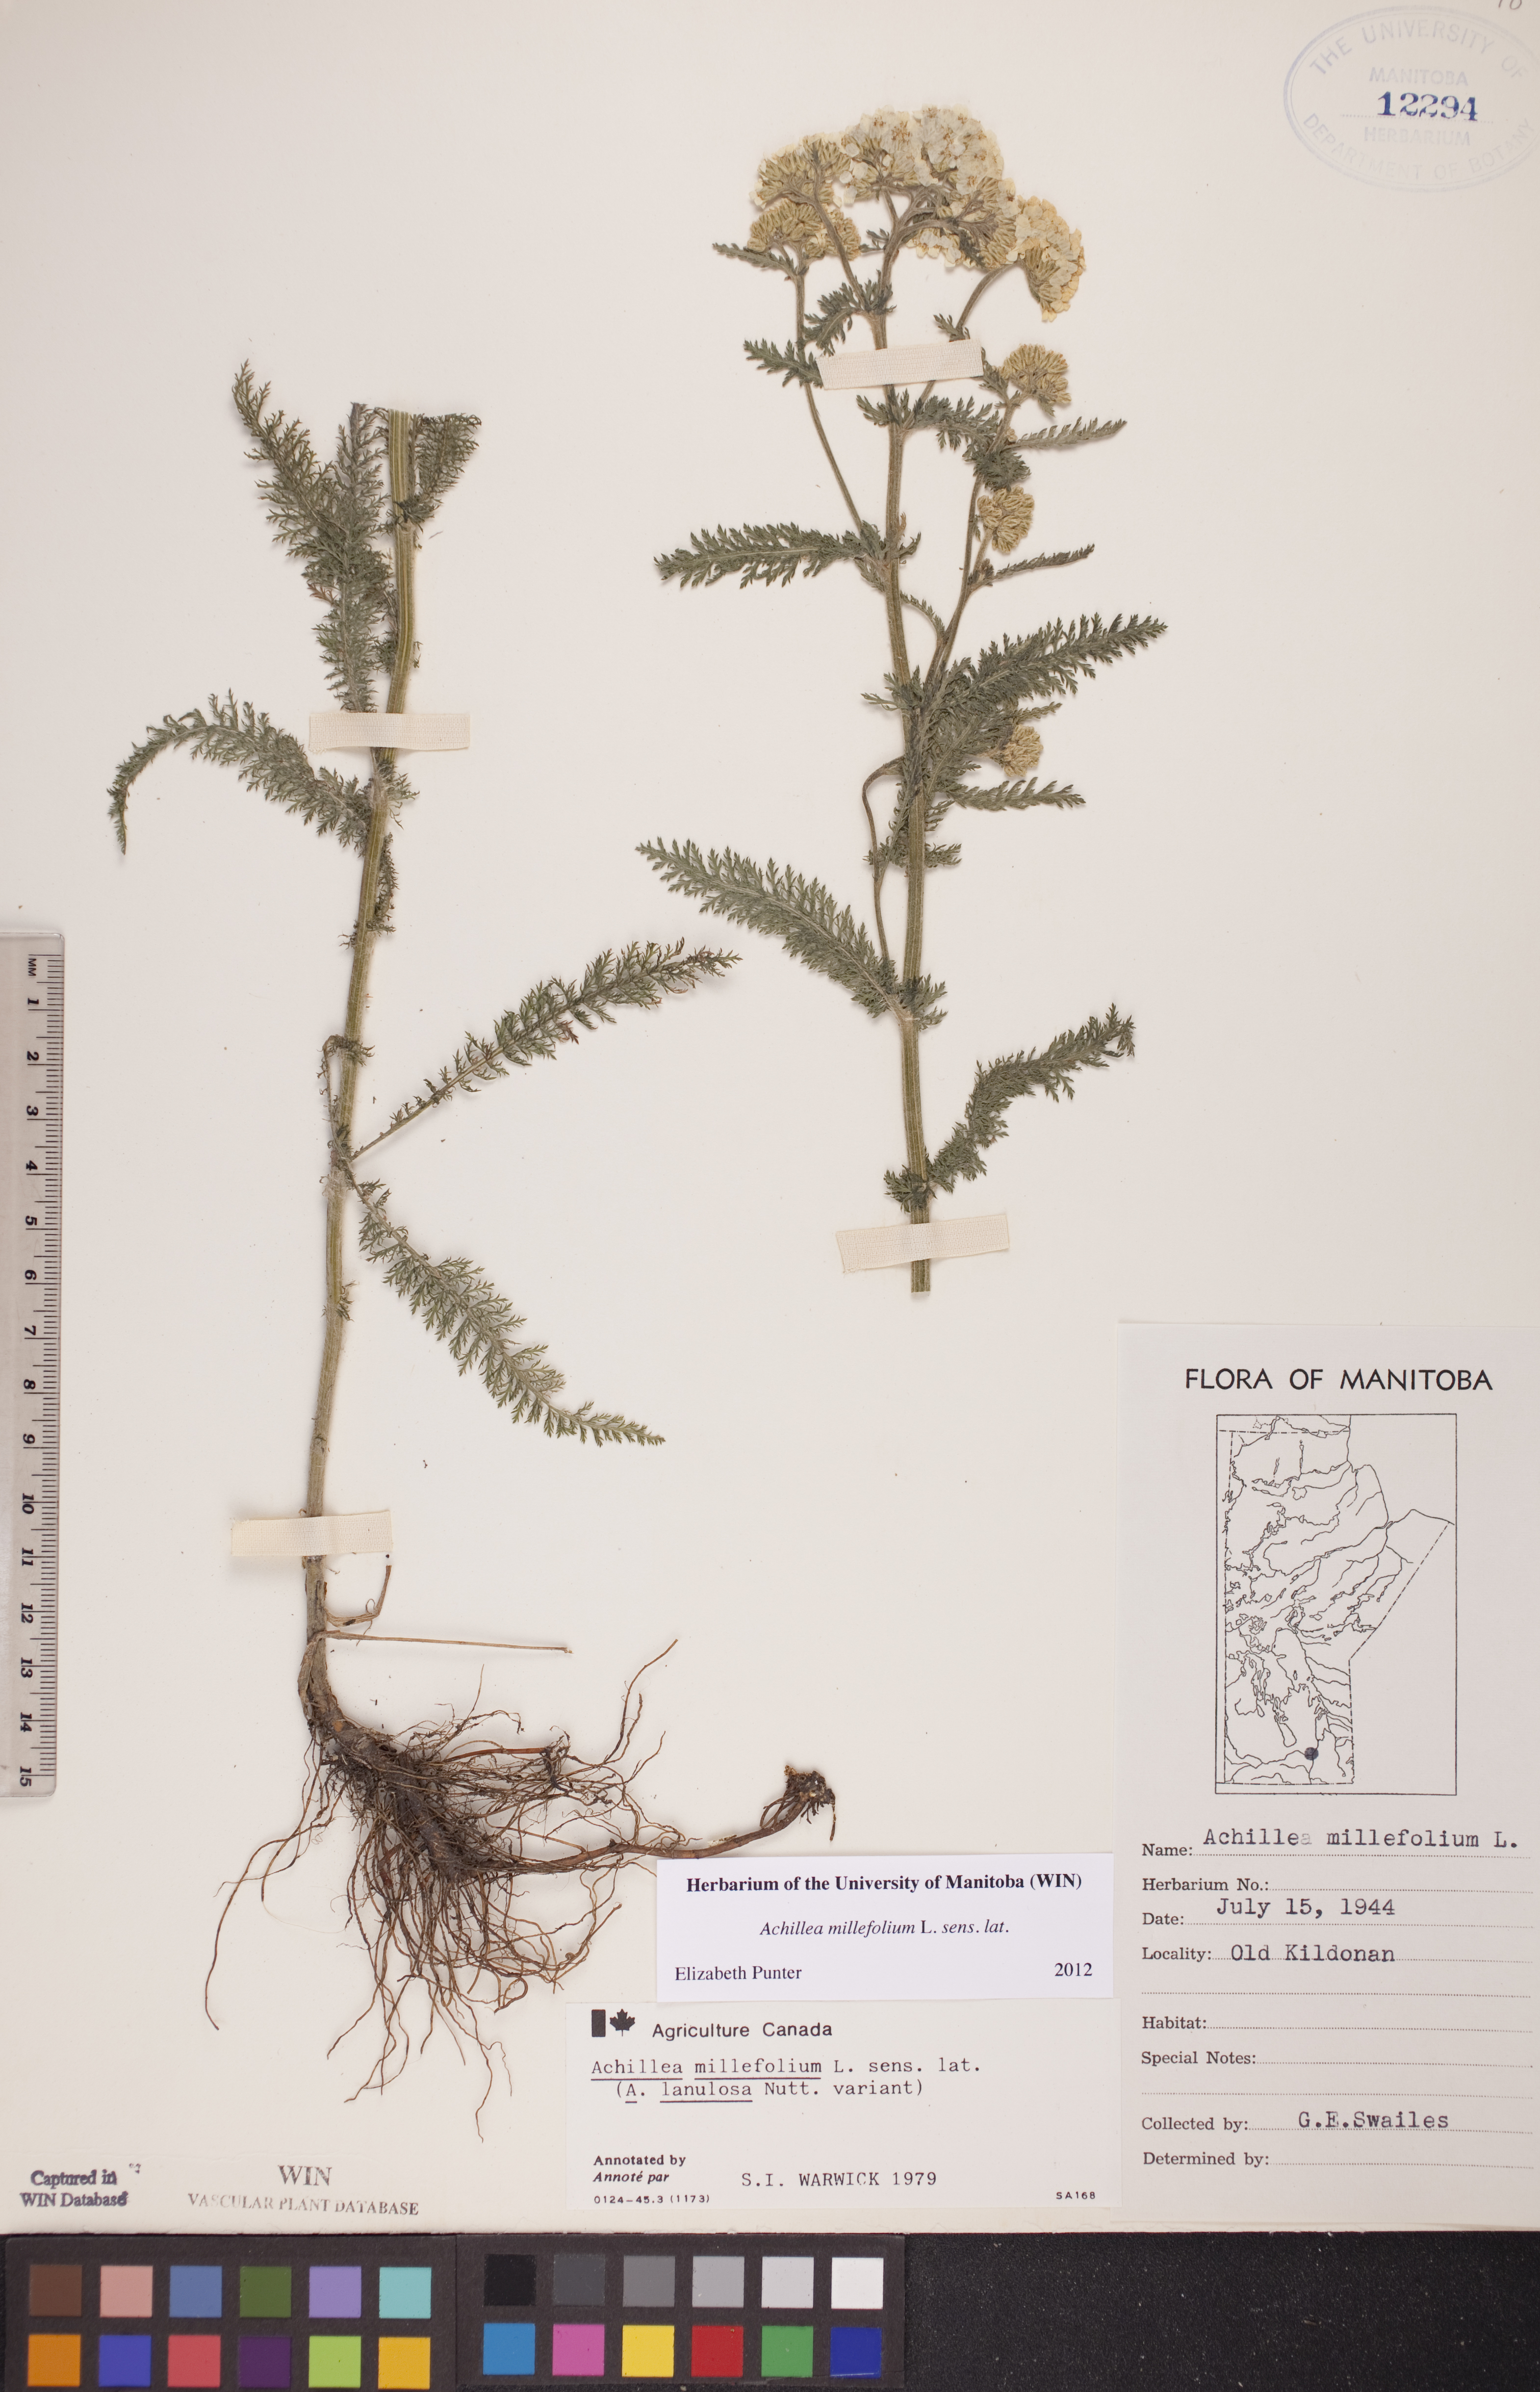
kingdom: Plantae
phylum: Tracheophyta
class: Magnoliopsida
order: Asterales
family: Asteraceae
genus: Achillea
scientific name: Achillea millefolium
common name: Yarrow
